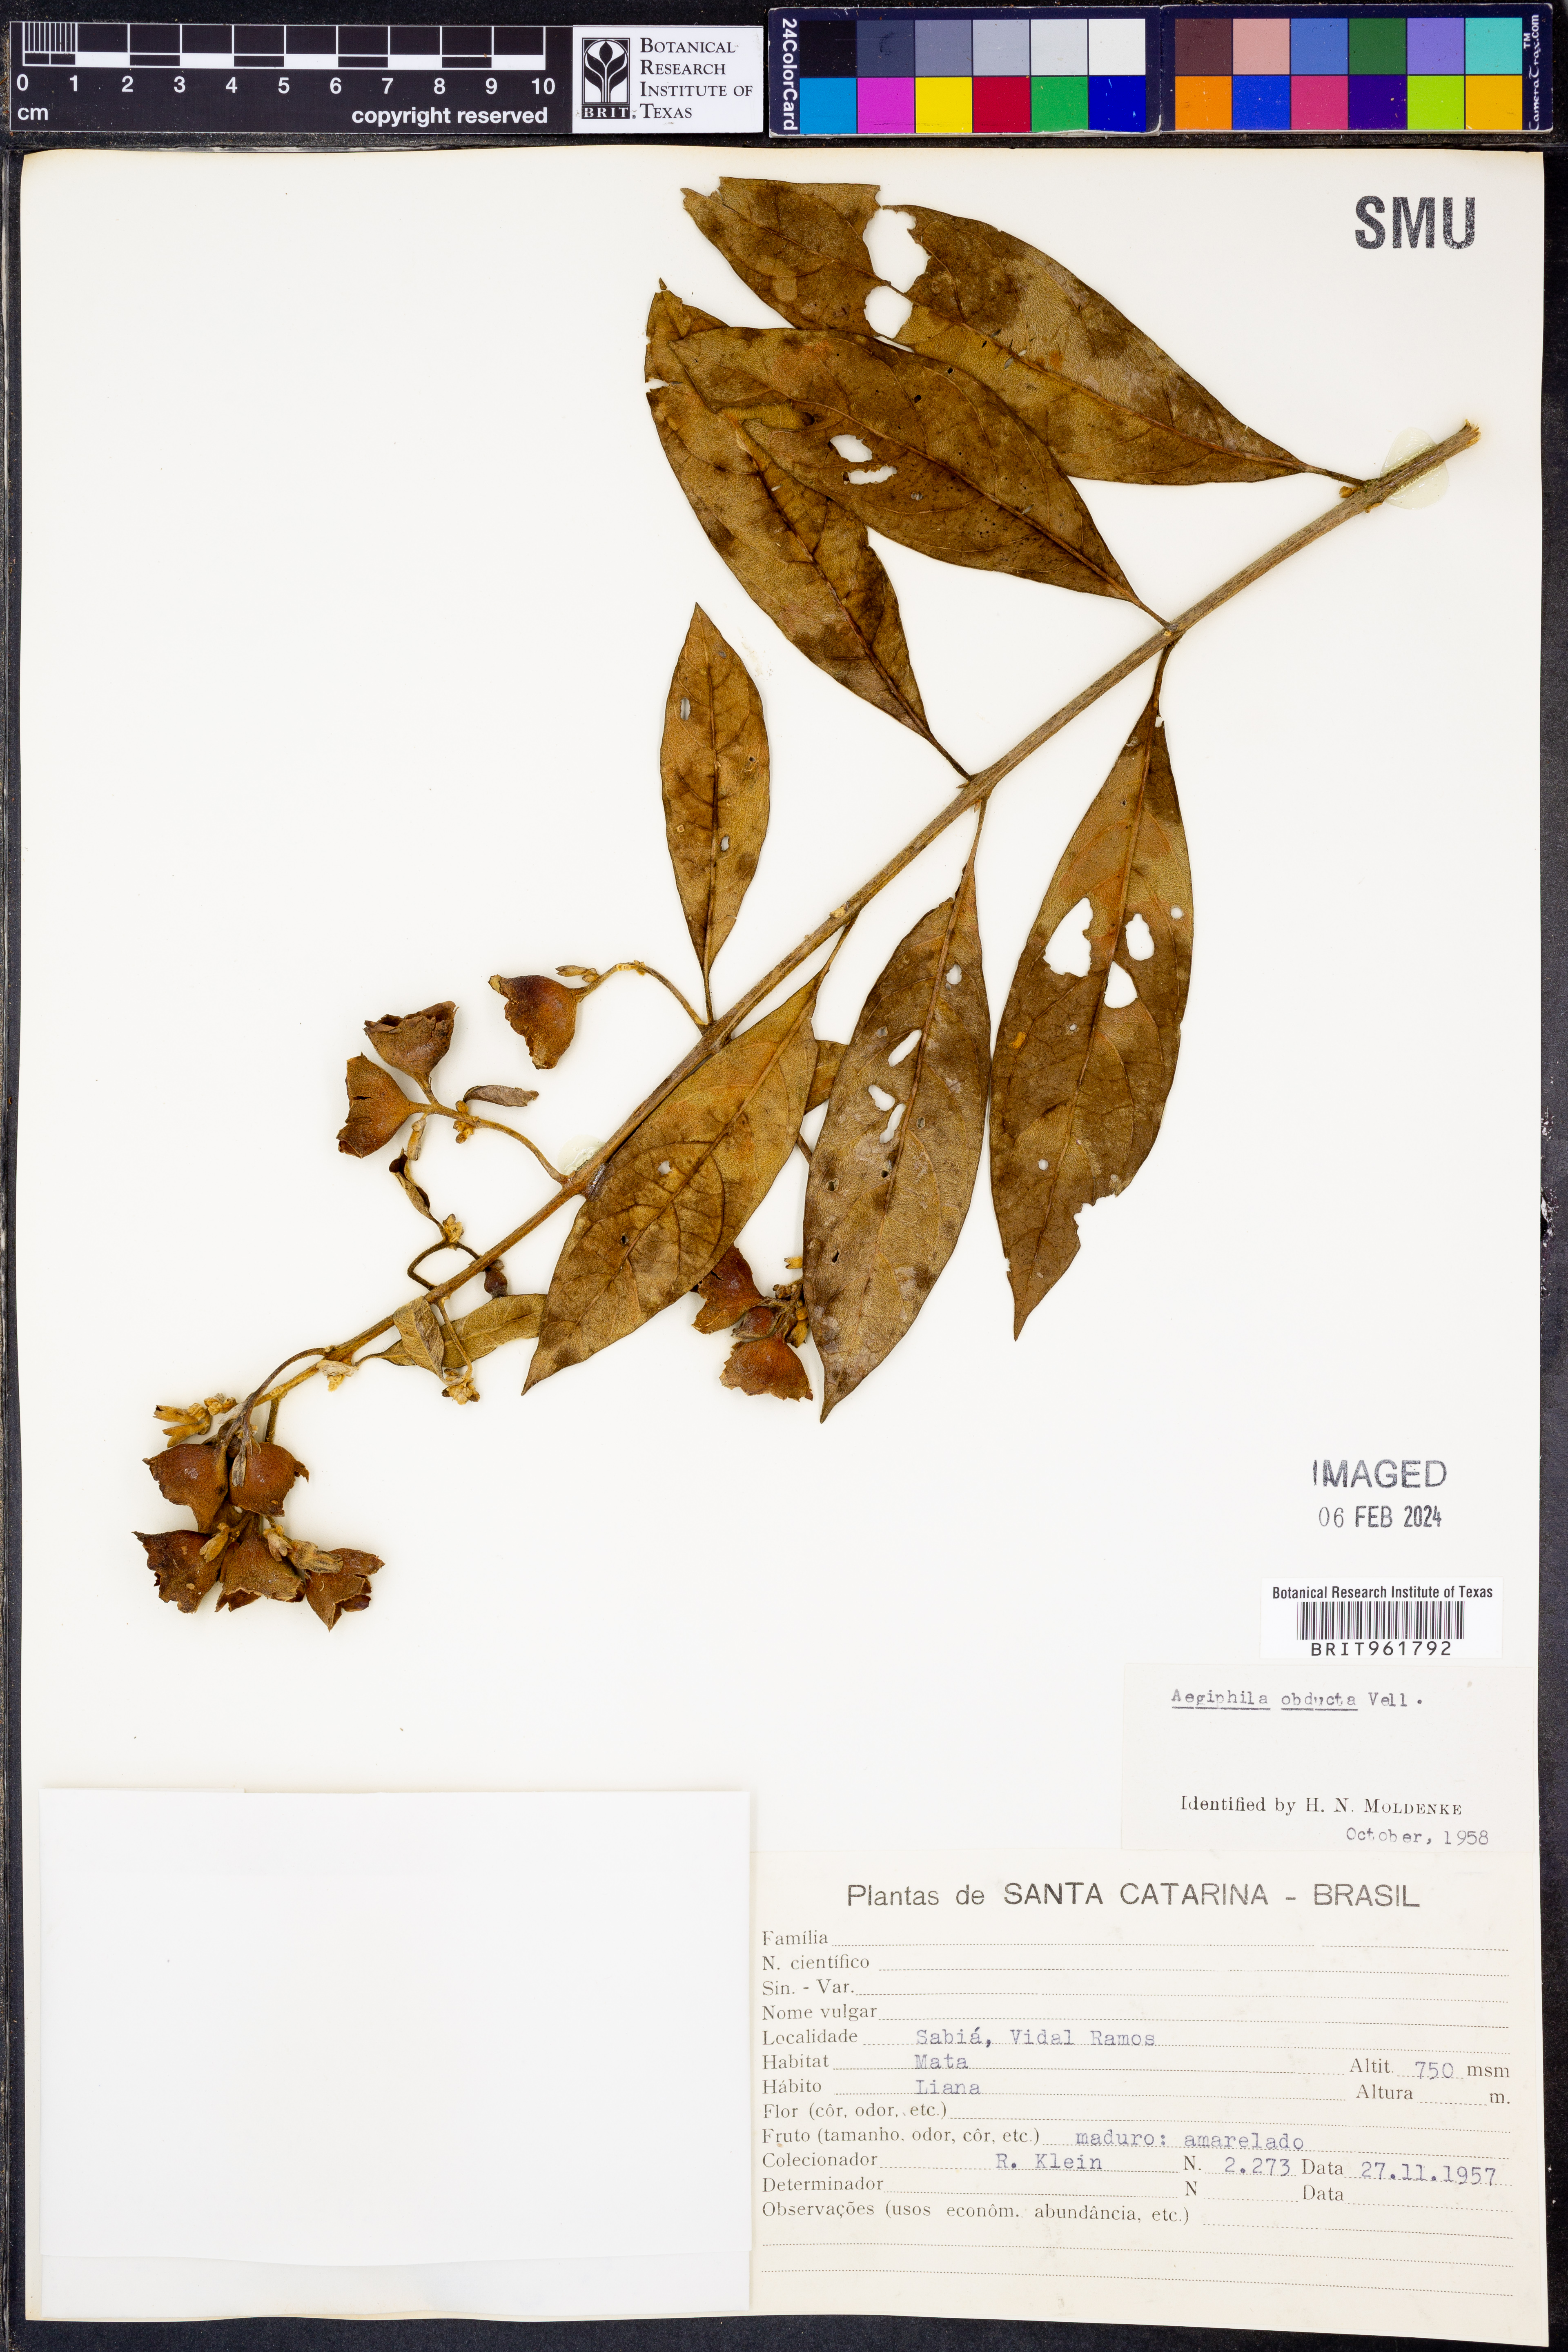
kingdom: Plantae
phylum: Tracheophyta
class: Magnoliopsida
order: Lamiales
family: Lamiaceae
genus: Aegiphila
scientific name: Aegiphila
